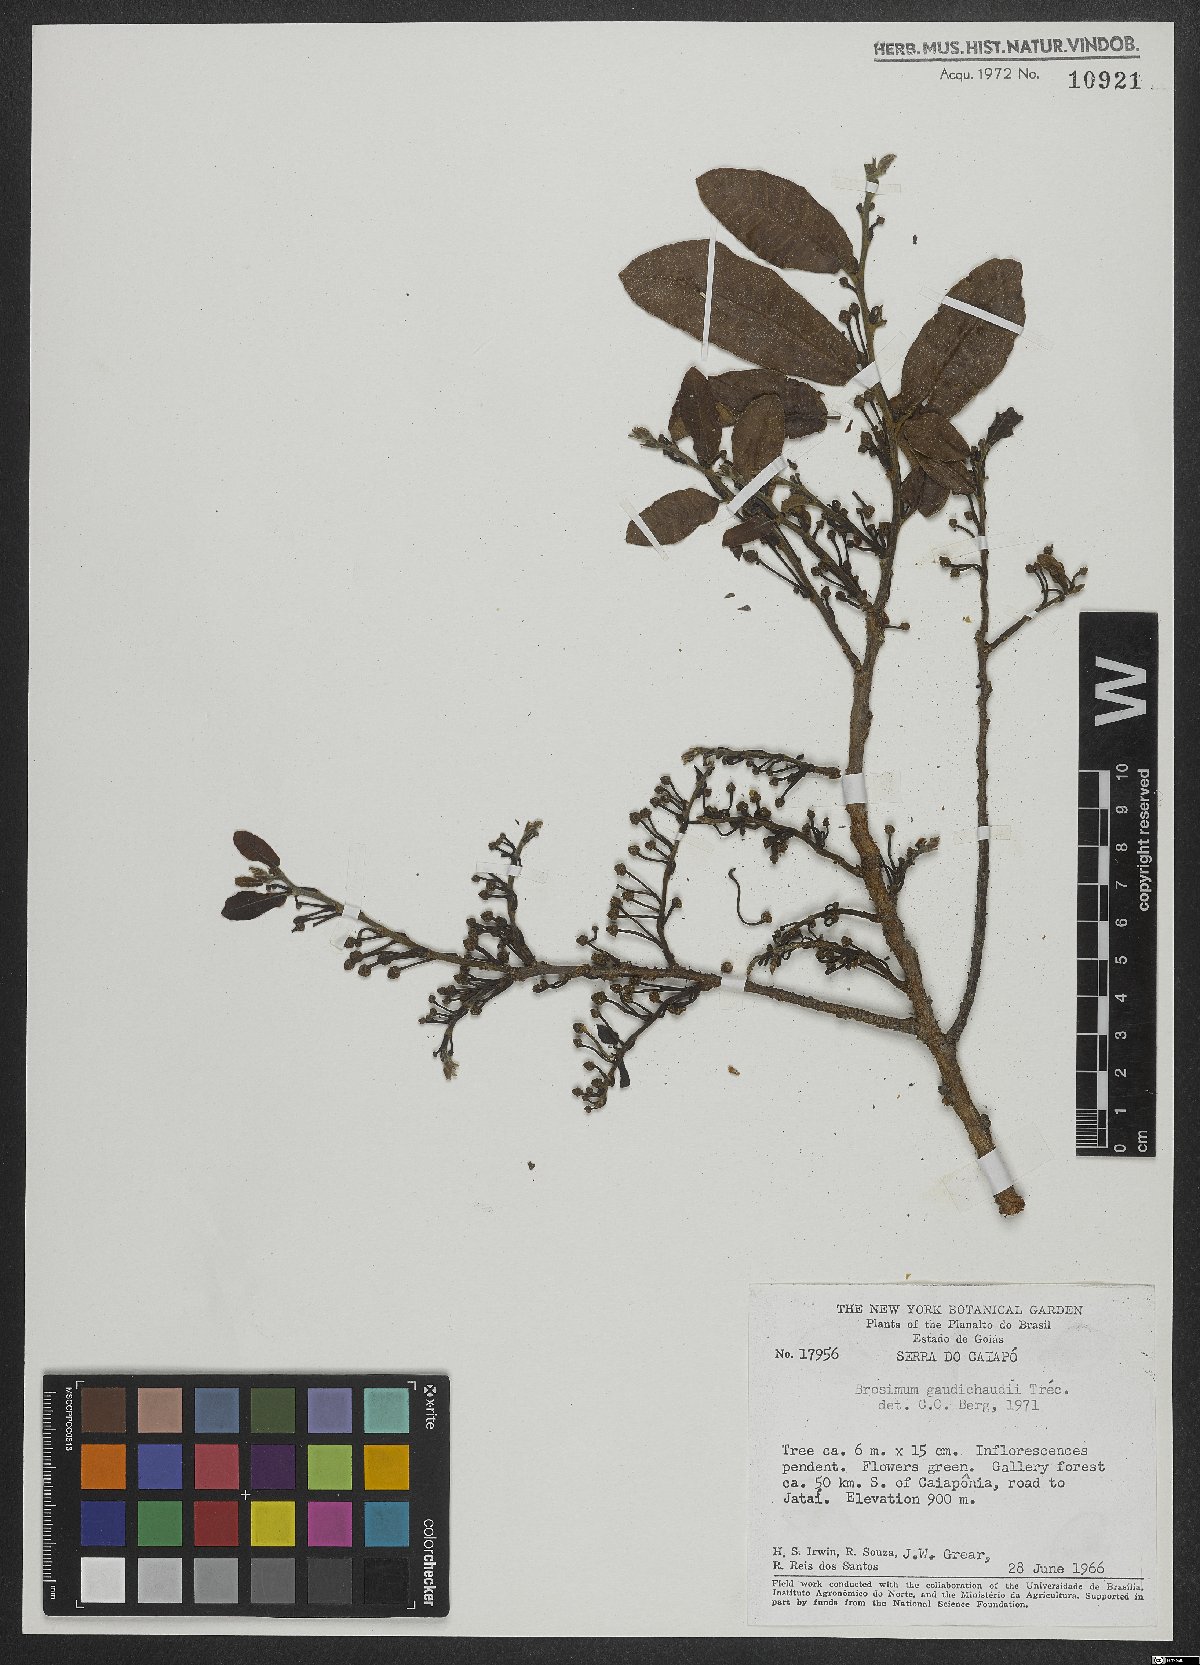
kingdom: Plantae
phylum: Tracheophyta
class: Magnoliopsida
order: Rosales
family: Moraceae
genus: Brosimum
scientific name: Brosimum gaudichaudii
